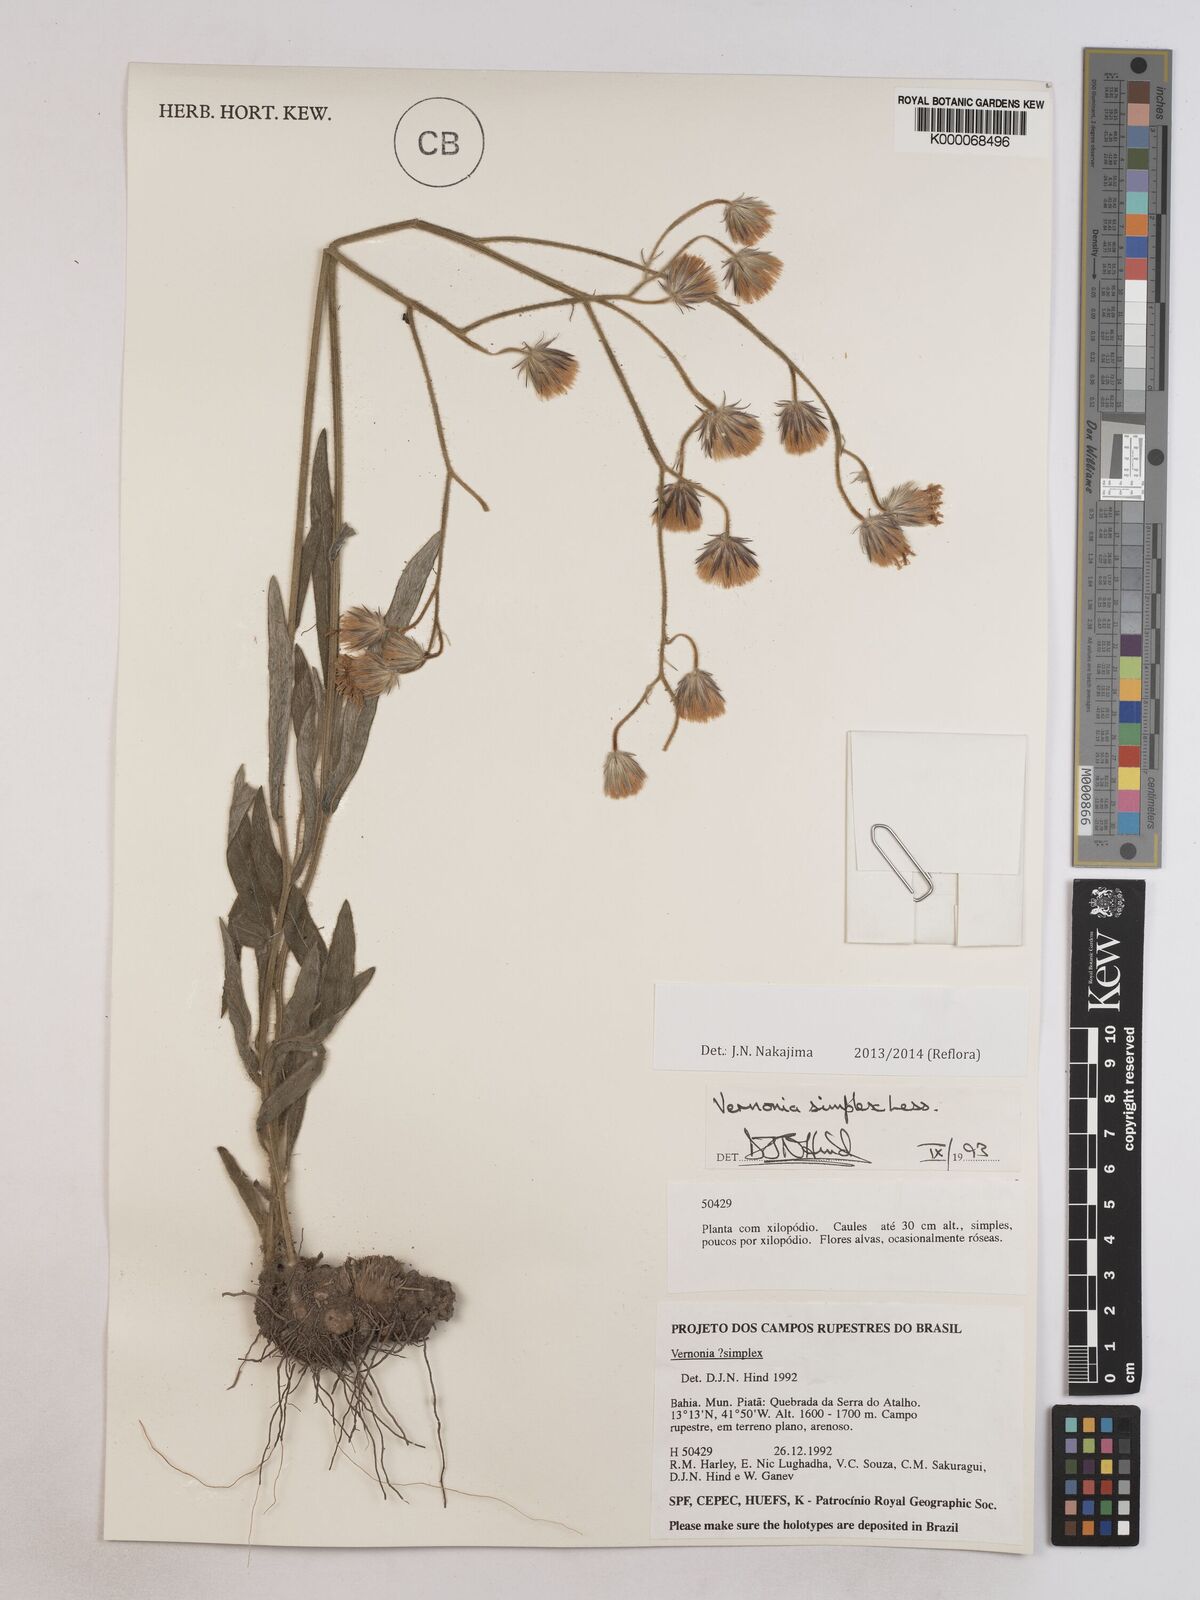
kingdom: Plantae
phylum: Tracheophyta
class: Magnoliopsida
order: Asterales
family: Asteraceae
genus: Chrysolaena
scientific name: Chrysolaena simplex
